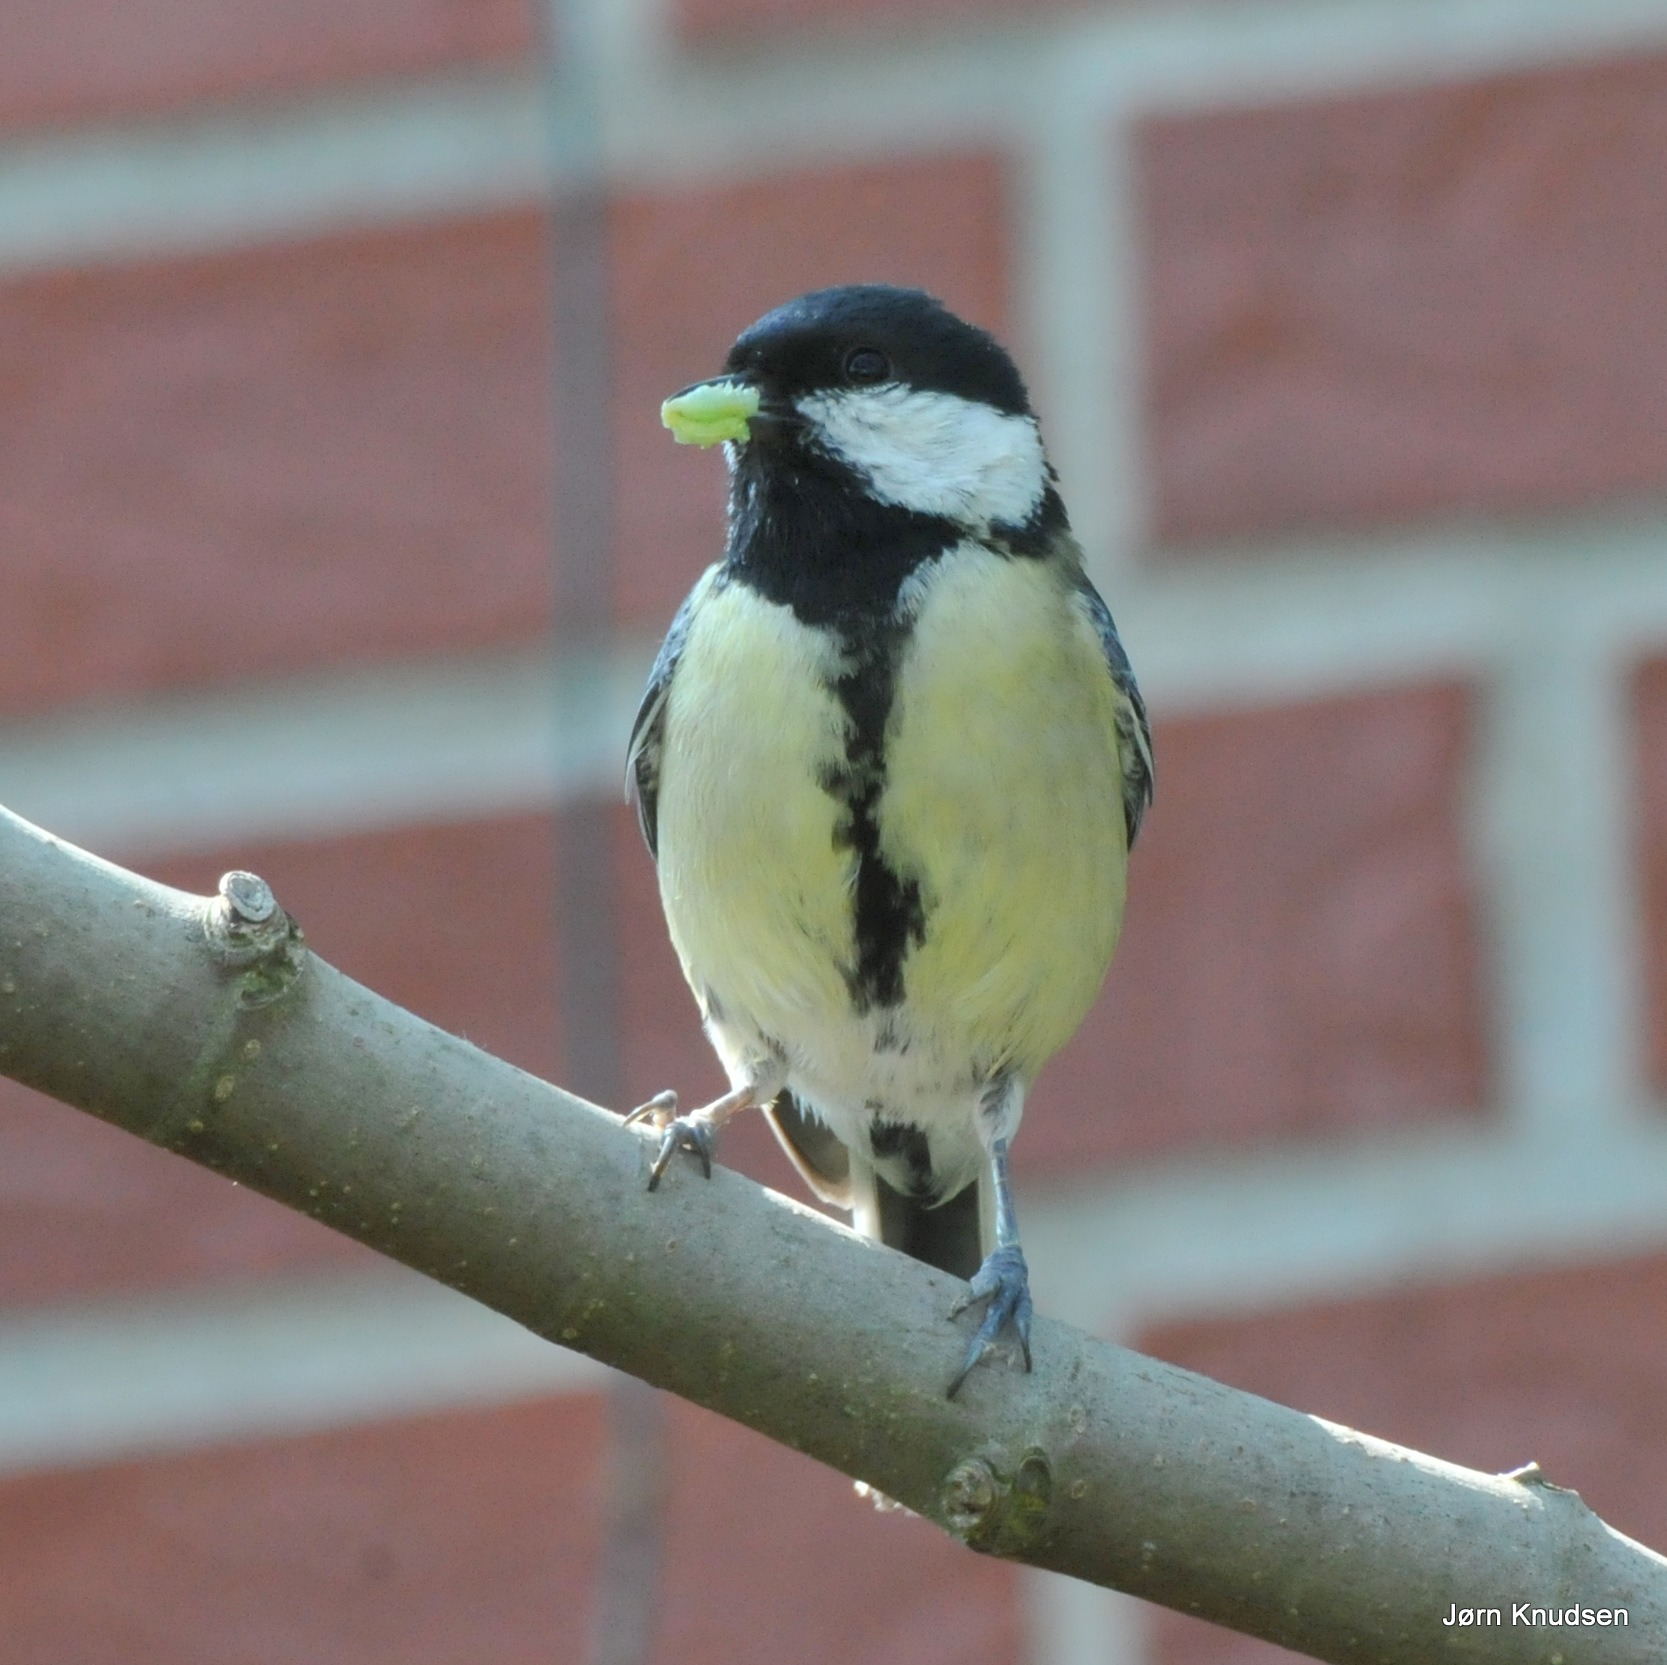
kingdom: Animalia
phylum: Chordata
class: Aves
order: Passeriformes
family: Paridae
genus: Parus
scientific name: Parus major
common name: Musvit
